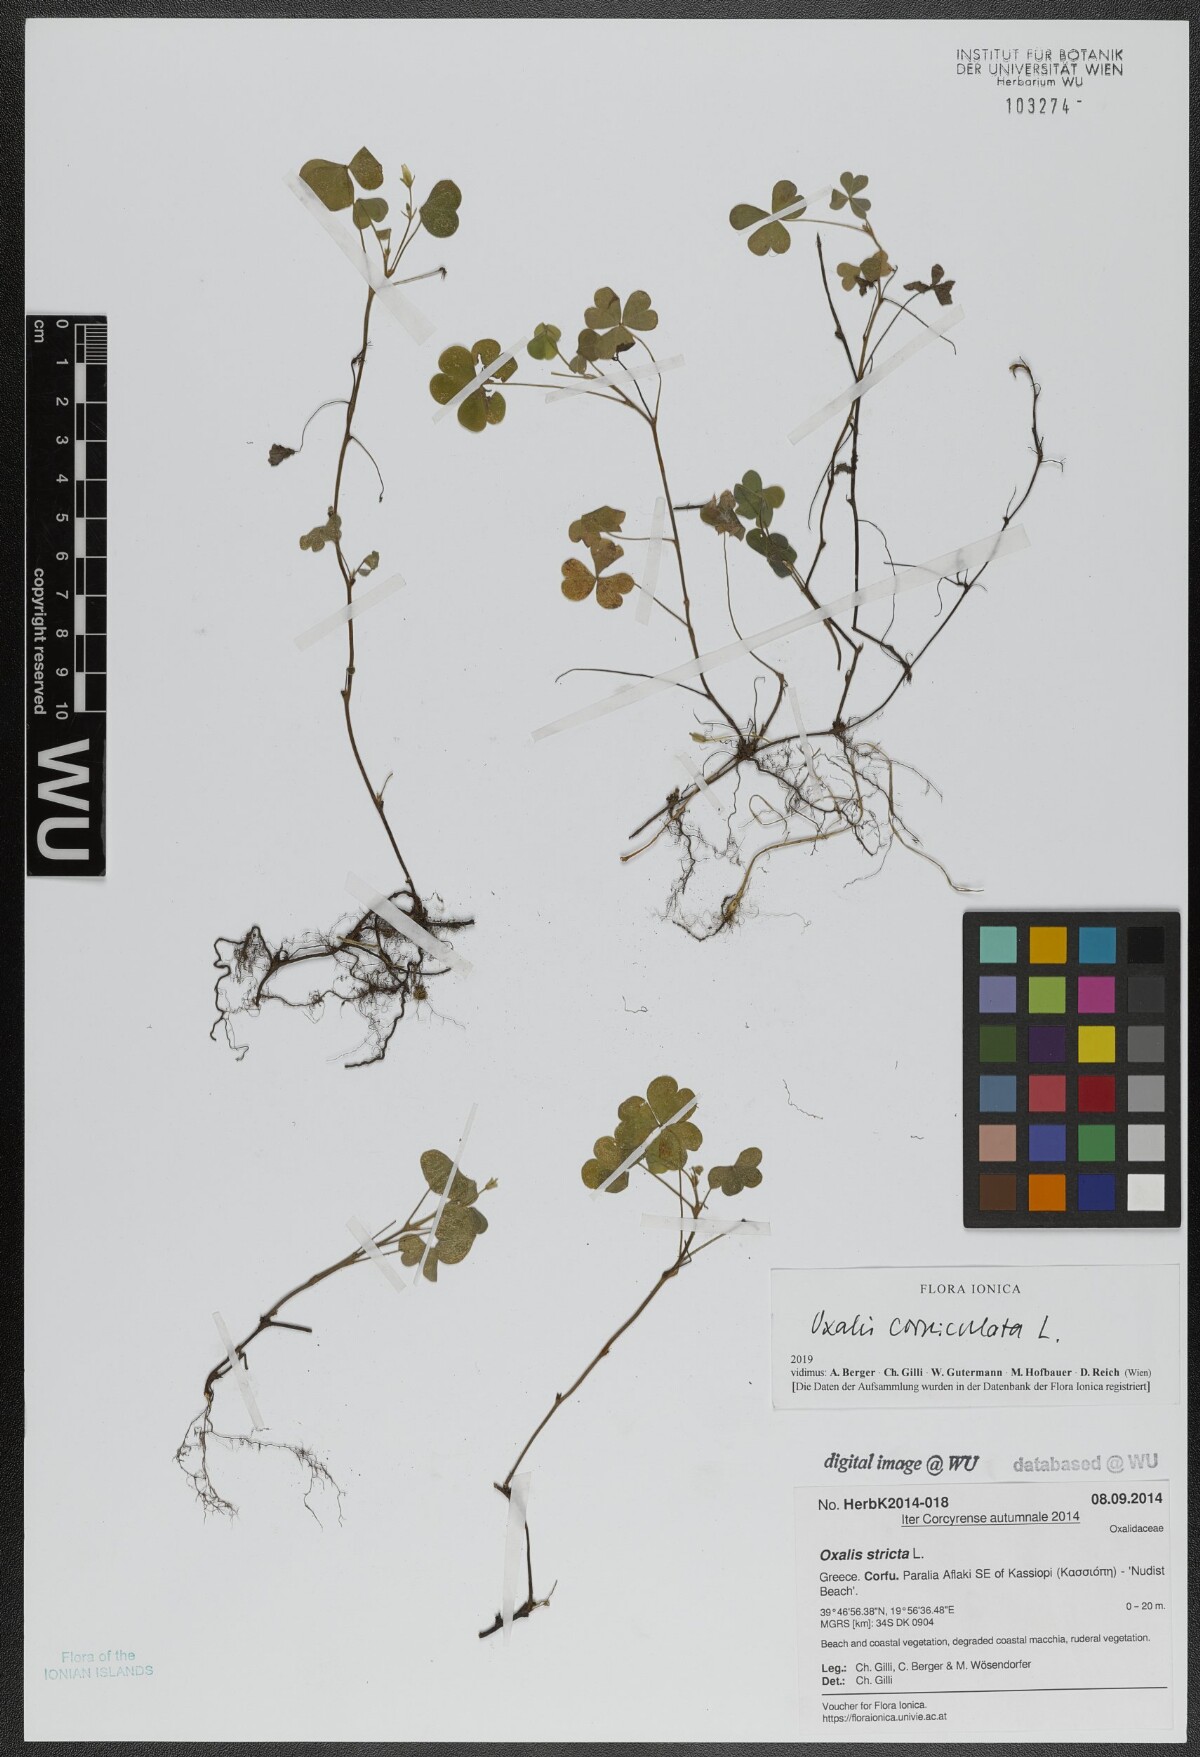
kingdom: Plantae
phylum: Tracheophyta
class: Magnoliopsida
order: Oxalidales
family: Oxalidaceae
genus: Oxalis
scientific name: Oxalis corniculata
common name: Procumbent yellow-sorrel
